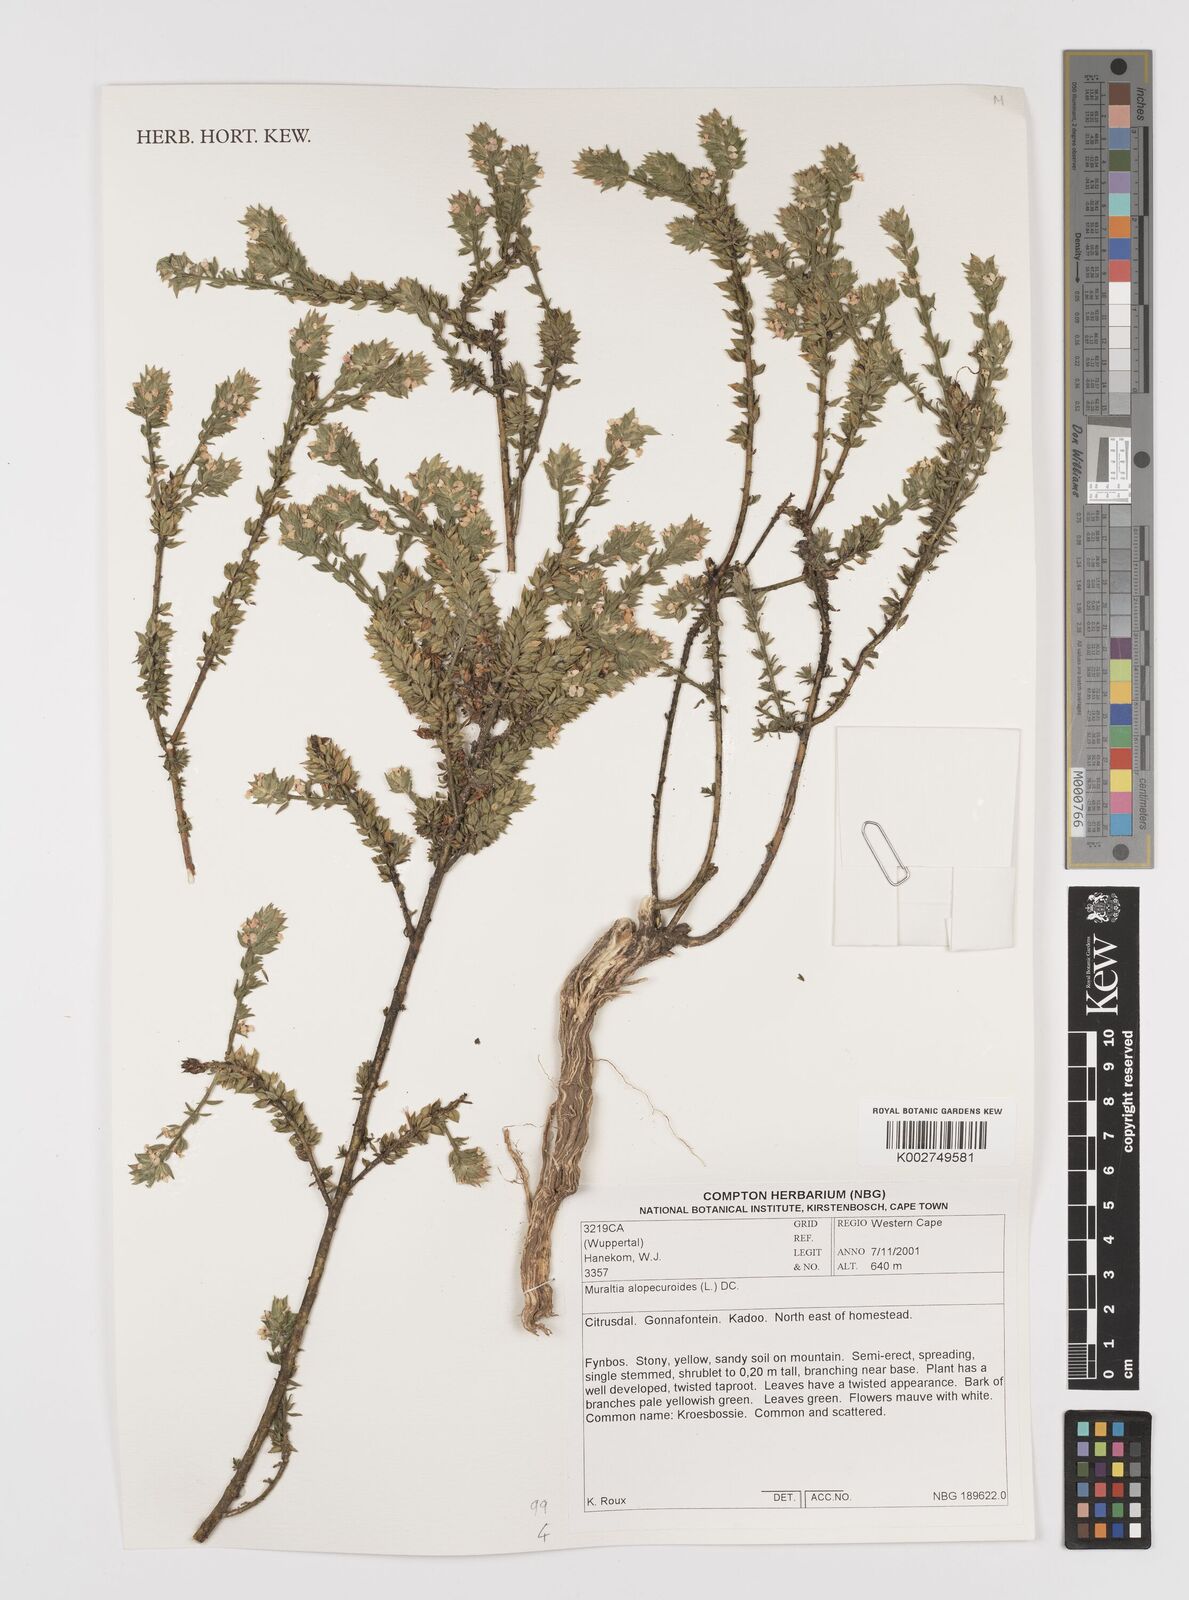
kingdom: Plantae
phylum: Tracheophyta
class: Magnoliopsida
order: Fabales
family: Polygalaceae
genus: Muraltia
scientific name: Muraltia alopecuroides
